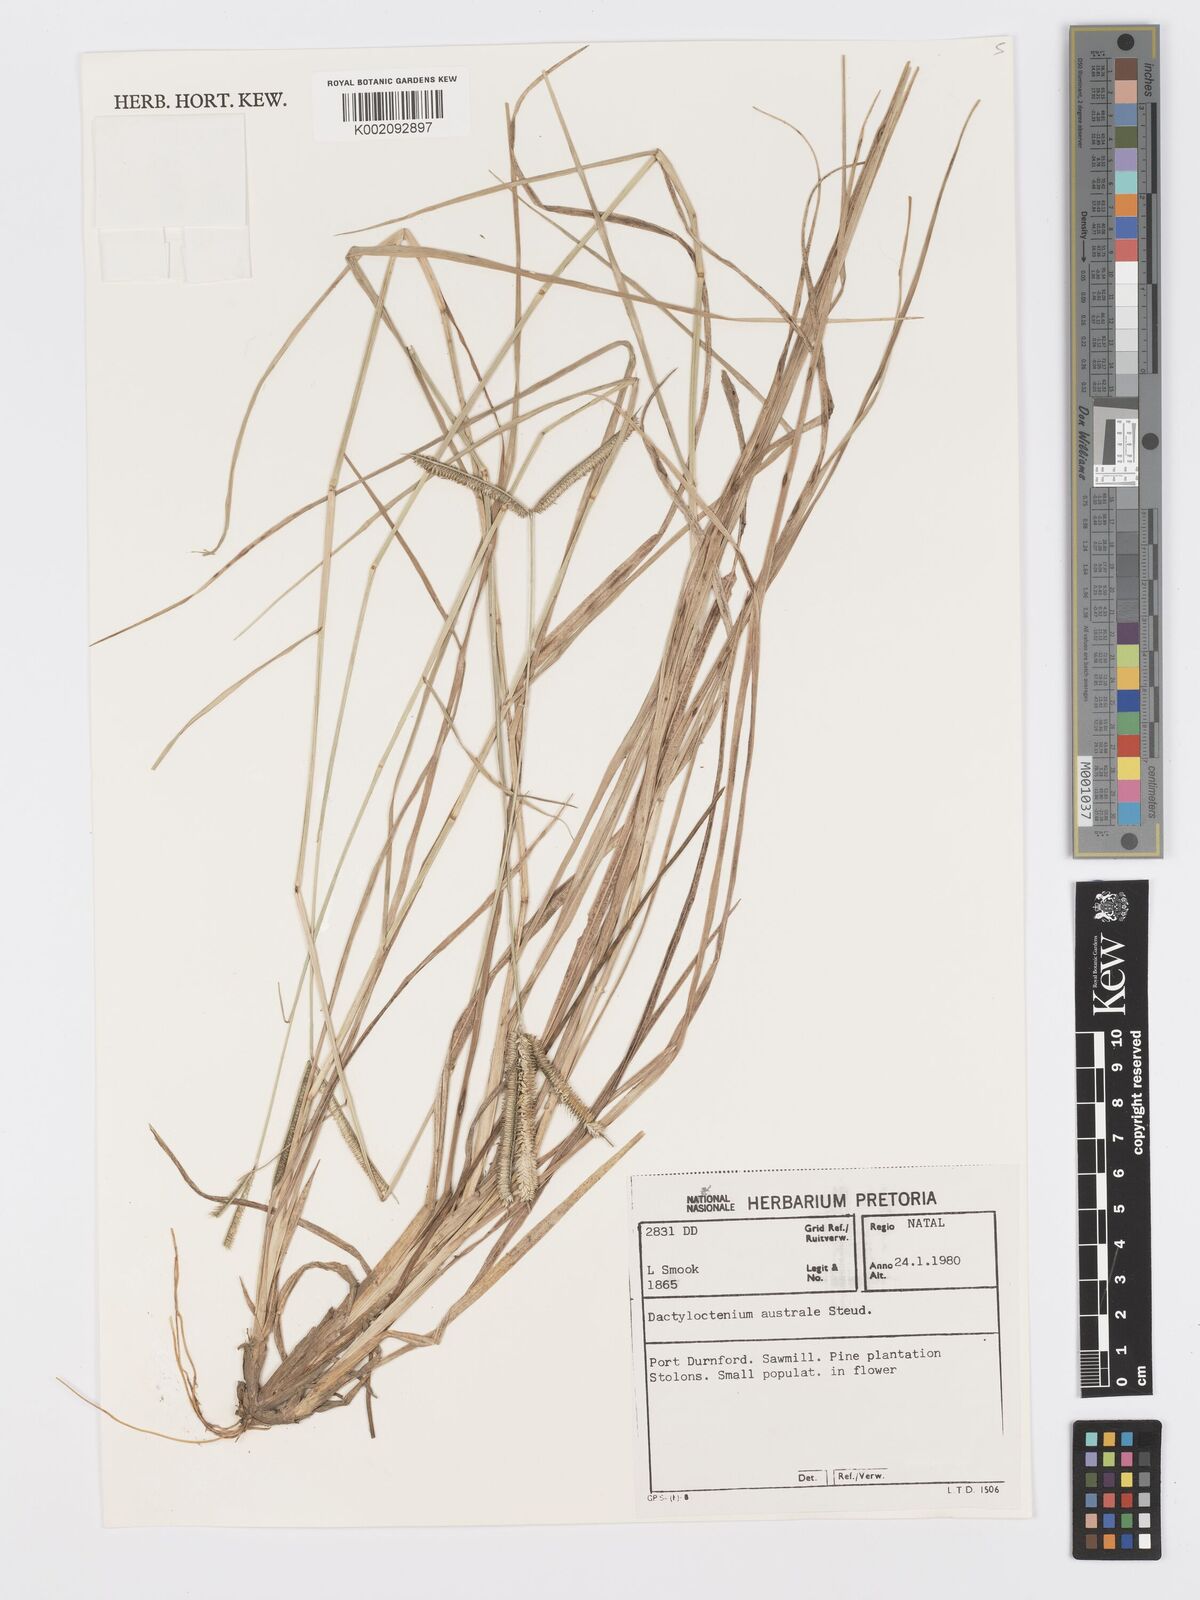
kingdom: Plantae
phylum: Tracheophyta
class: Liliopsida
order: Poales
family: Poaceae
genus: Dactyloctenium
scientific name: Dactyloctenium australe
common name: Durban grass
